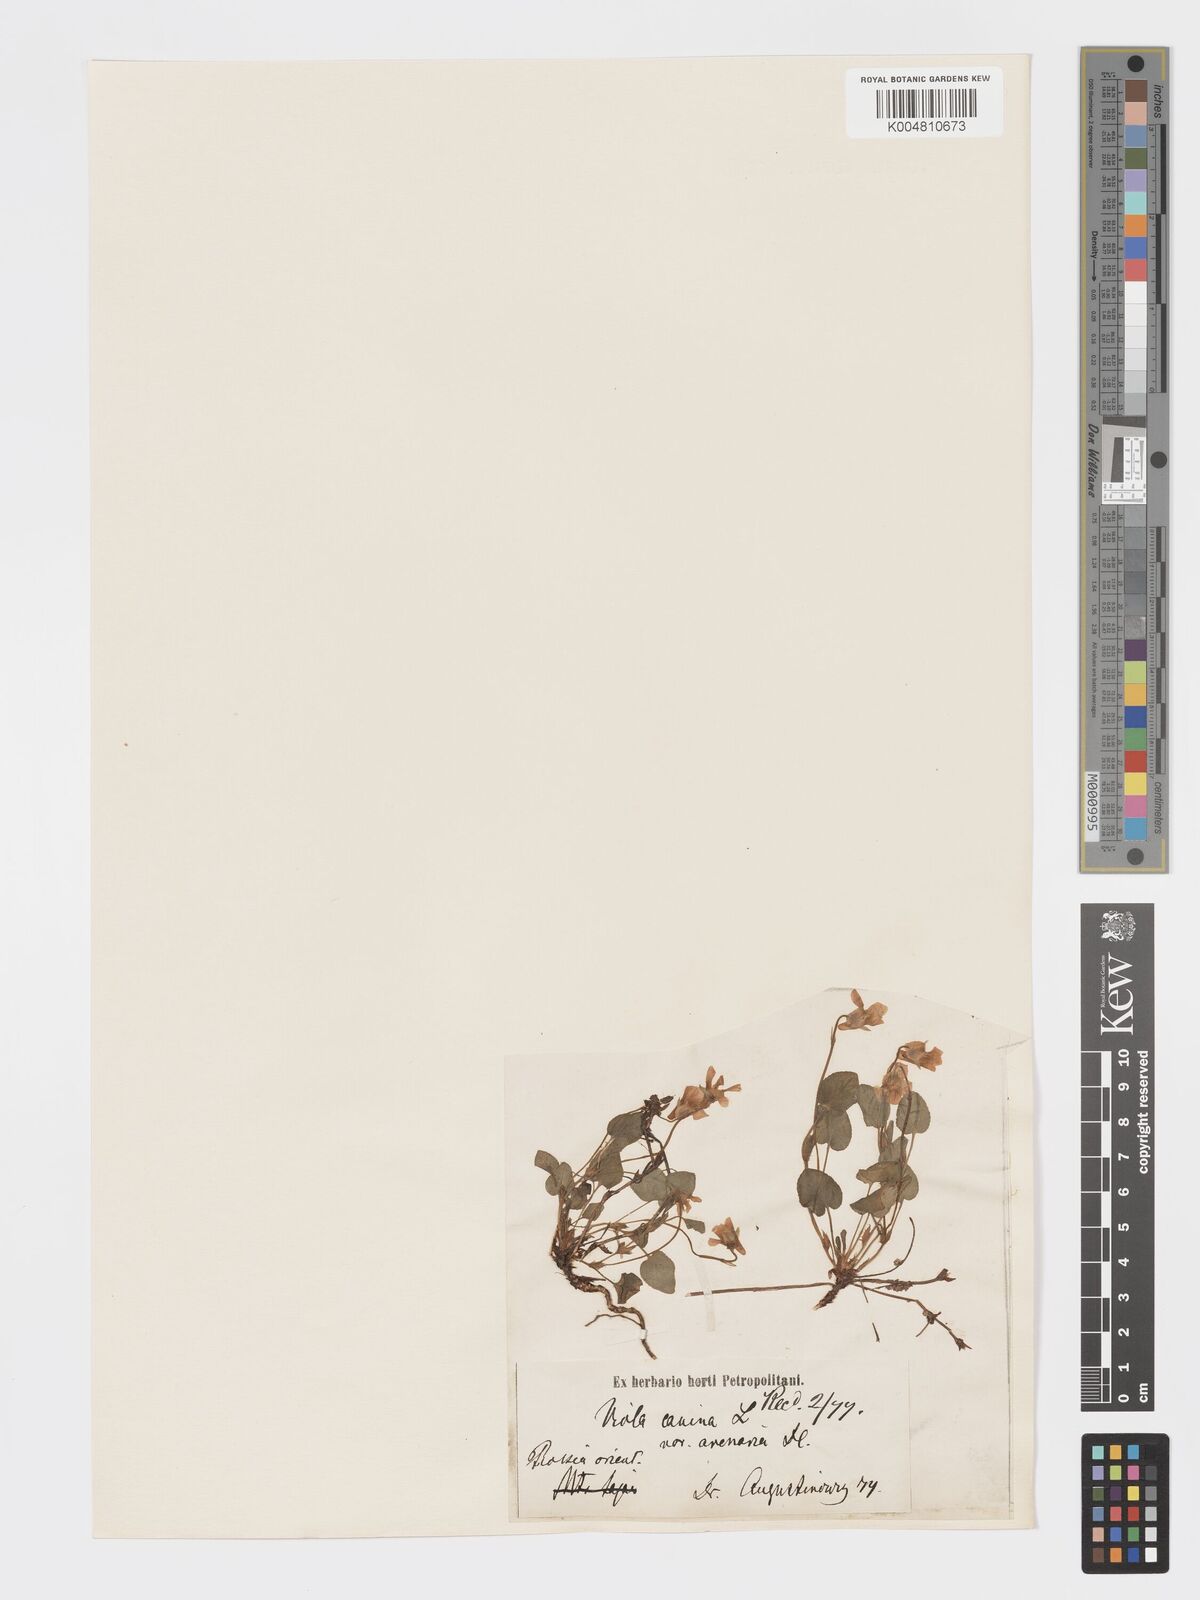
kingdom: Plantae
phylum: Tracheophyta
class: Magnoliopsida
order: Malpighiales
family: Violaceae
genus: Viola
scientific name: Viola rupestris
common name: Teesdale violet
